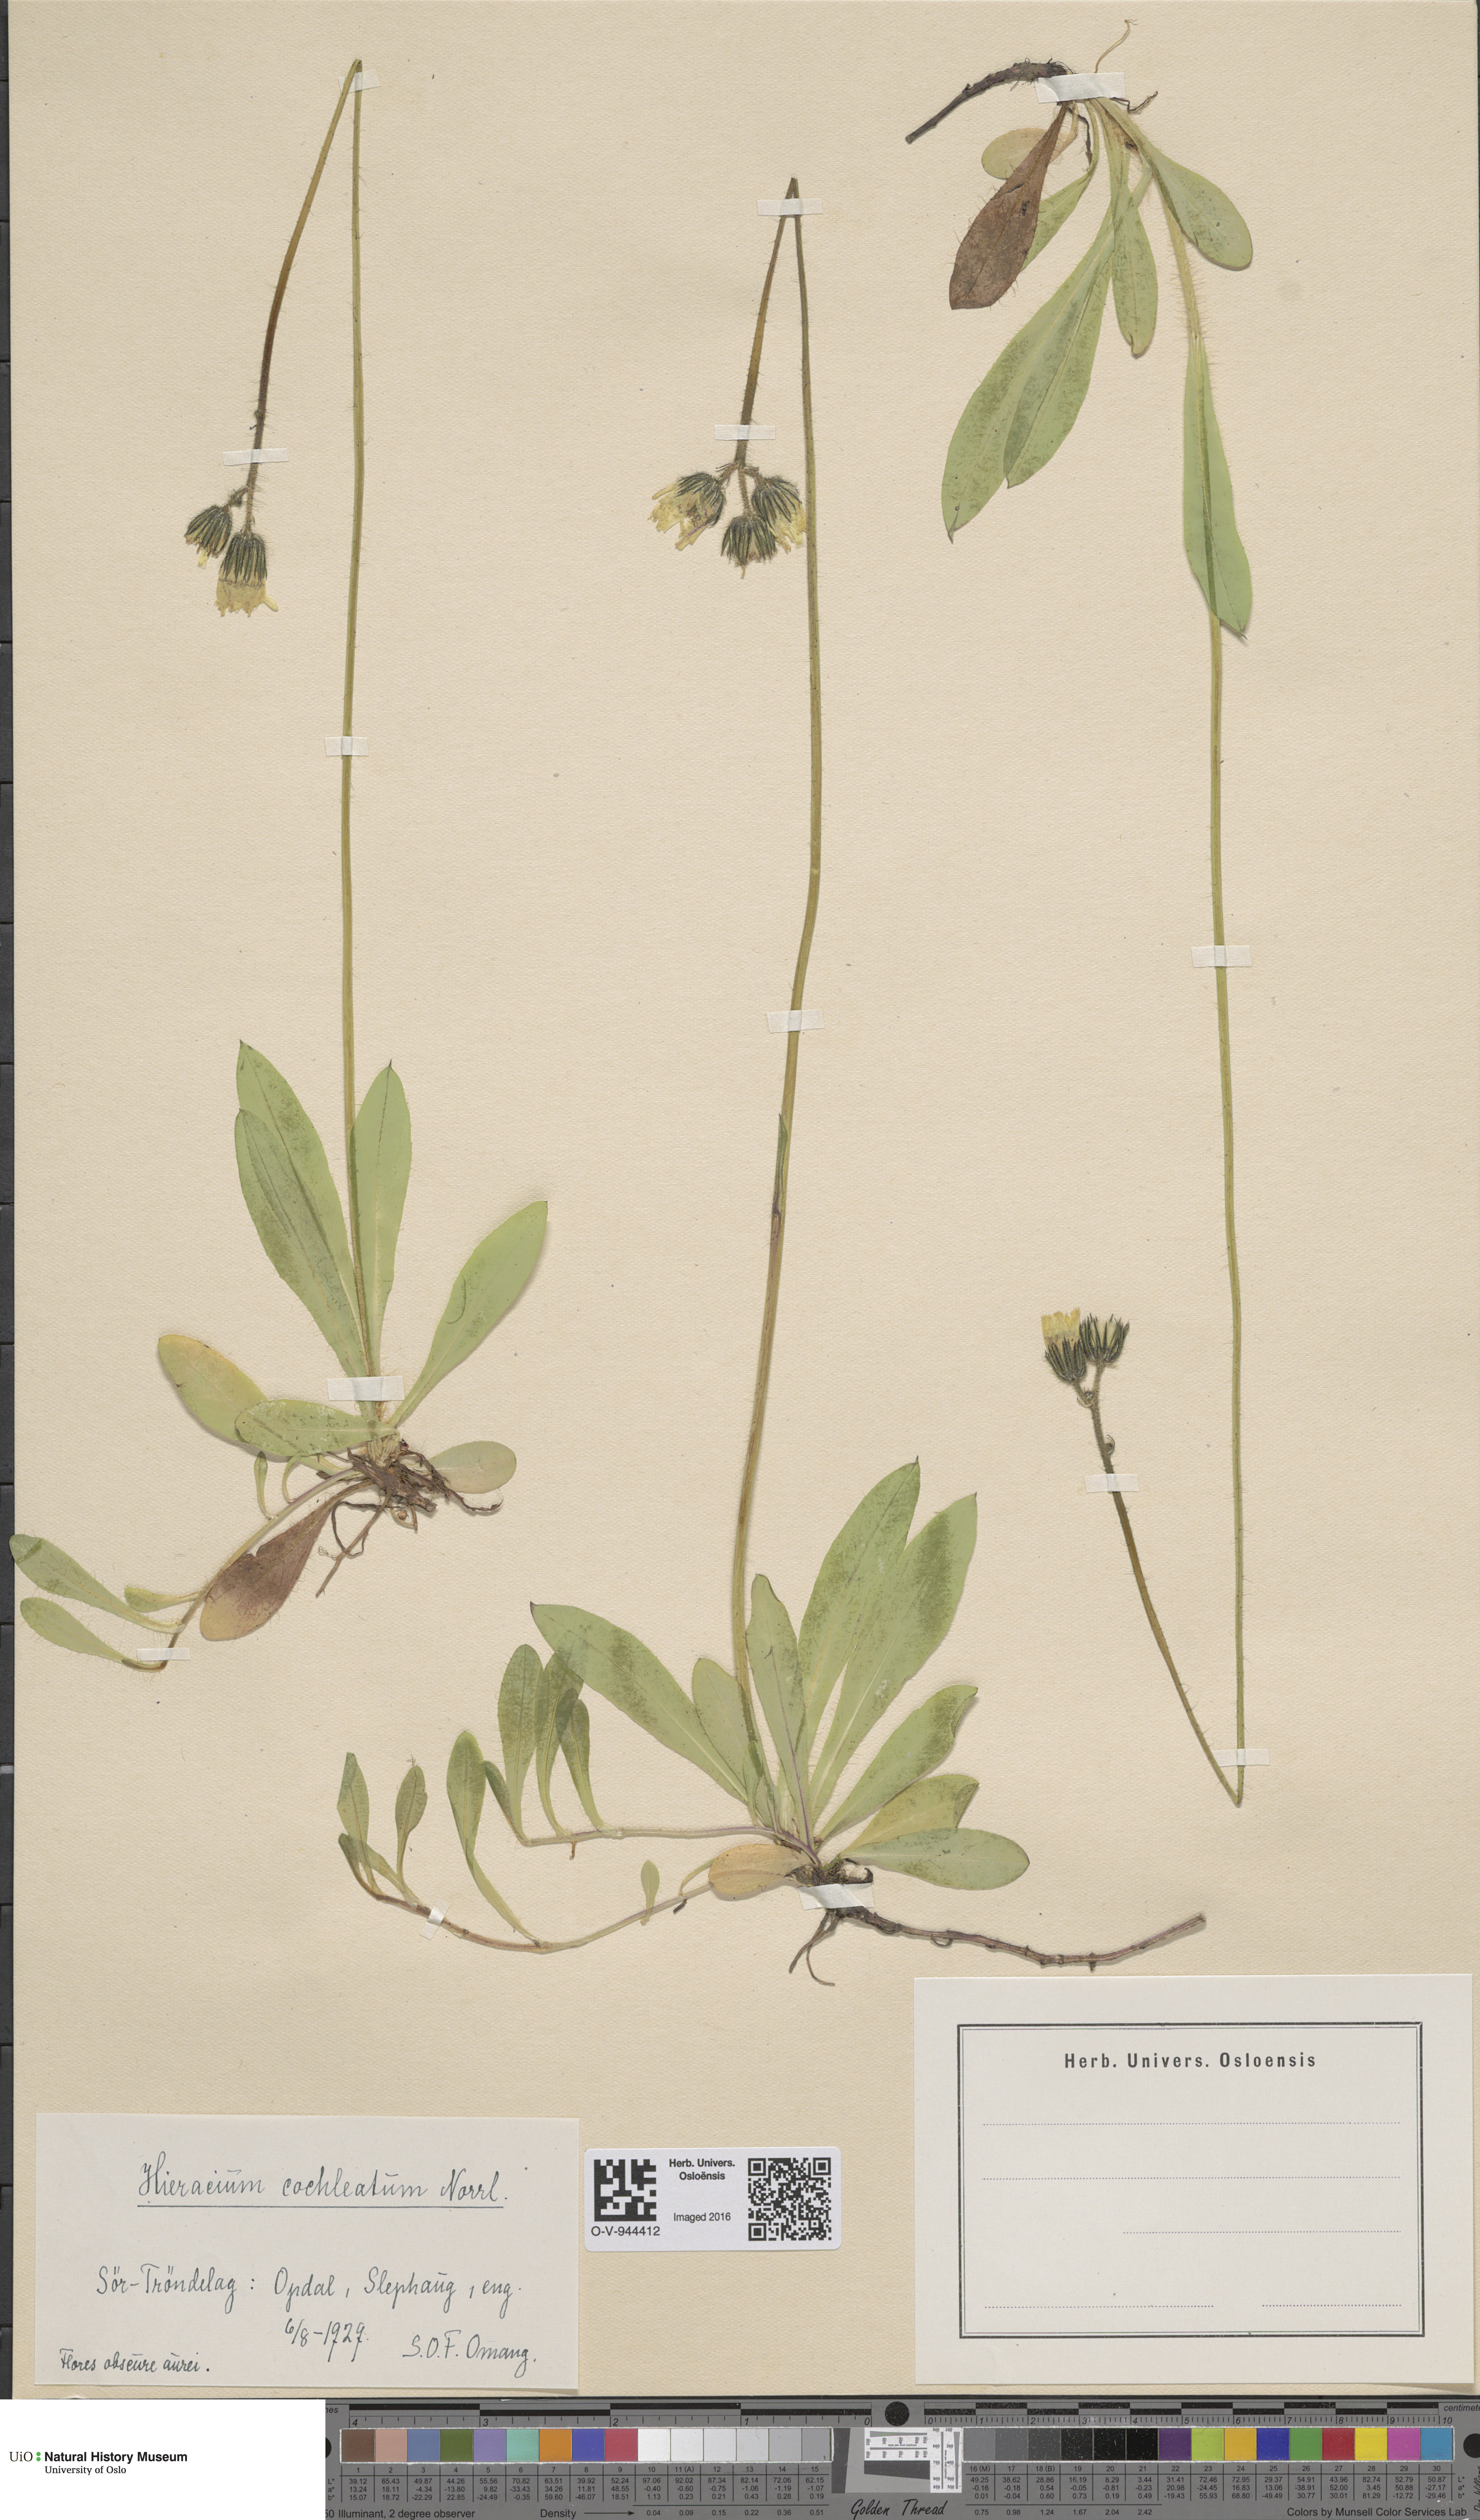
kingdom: Plantae
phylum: Tracheophyta
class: Magnoliopsida
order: Asterales
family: Asteraceae
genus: Pilosella
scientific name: Pilosella floribunda
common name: Glaucous hawkweed
